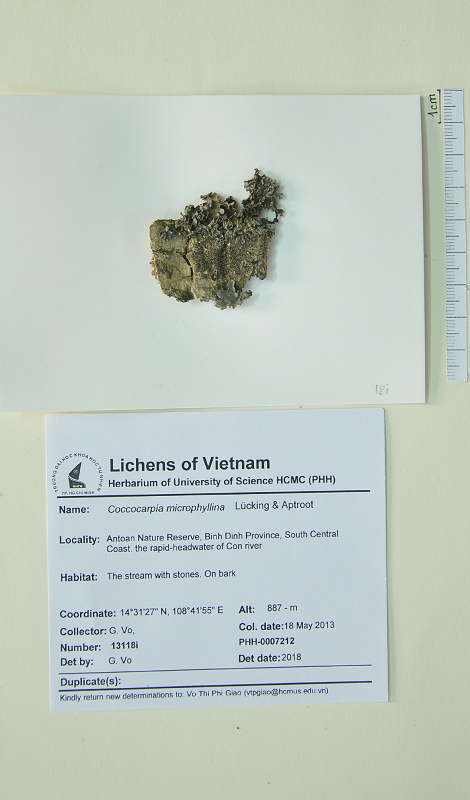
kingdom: Fungi
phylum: Ascomycota
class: Lecanoromycetes
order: Peltigerales
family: Coccocarpiaceae
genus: Coccocarpia
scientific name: Coccocarpia microphyllina
